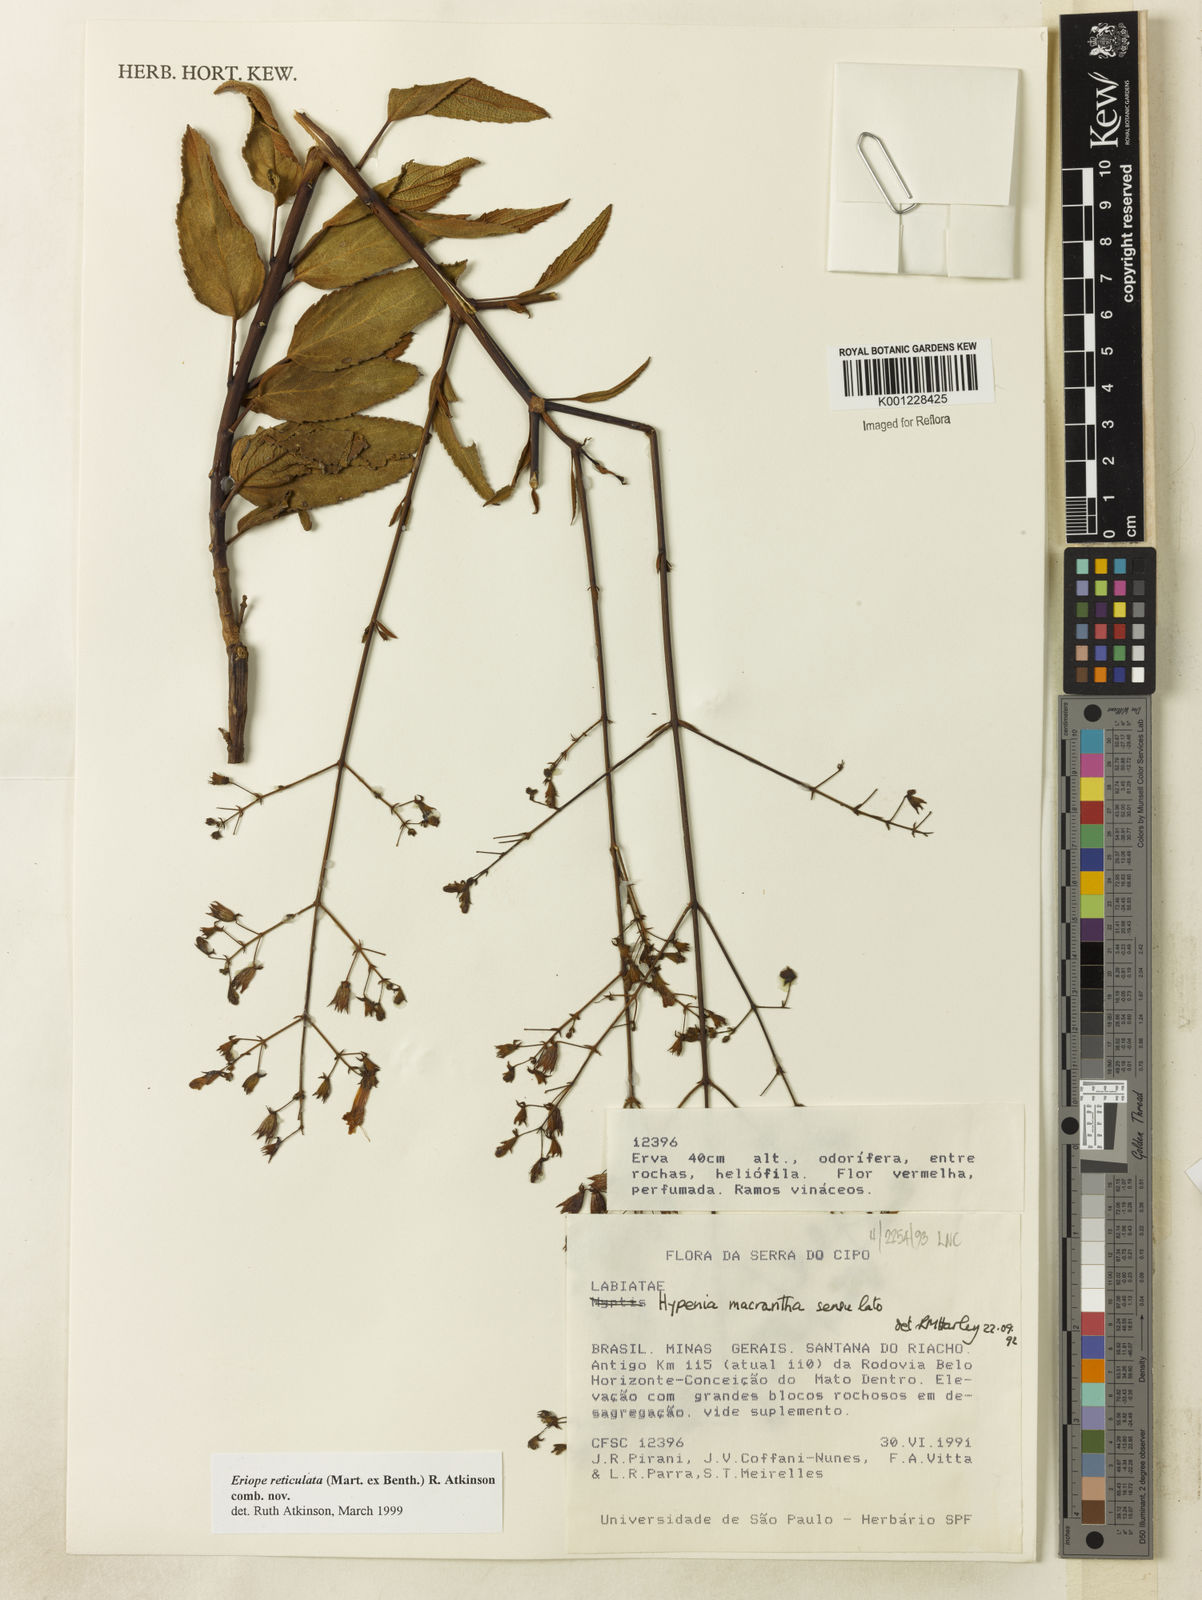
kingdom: Plantae
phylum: Tracheophyta
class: Magnoliopsida
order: Lamiales
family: Lamiaceae
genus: Hypenia
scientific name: Hypenia reticulata
